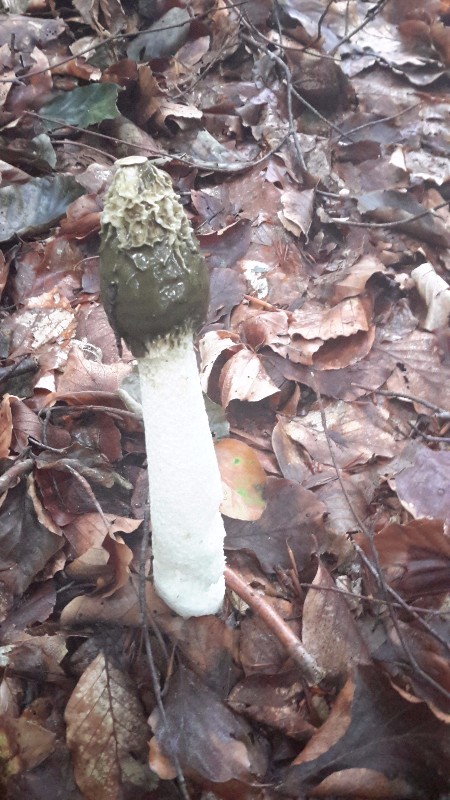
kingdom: Fungi
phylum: Basidiomycota
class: Agaricomycetes
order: Phallales
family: Phallaceae
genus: Phallus
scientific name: Phallus impudicus
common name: almindelig stinksvamp
